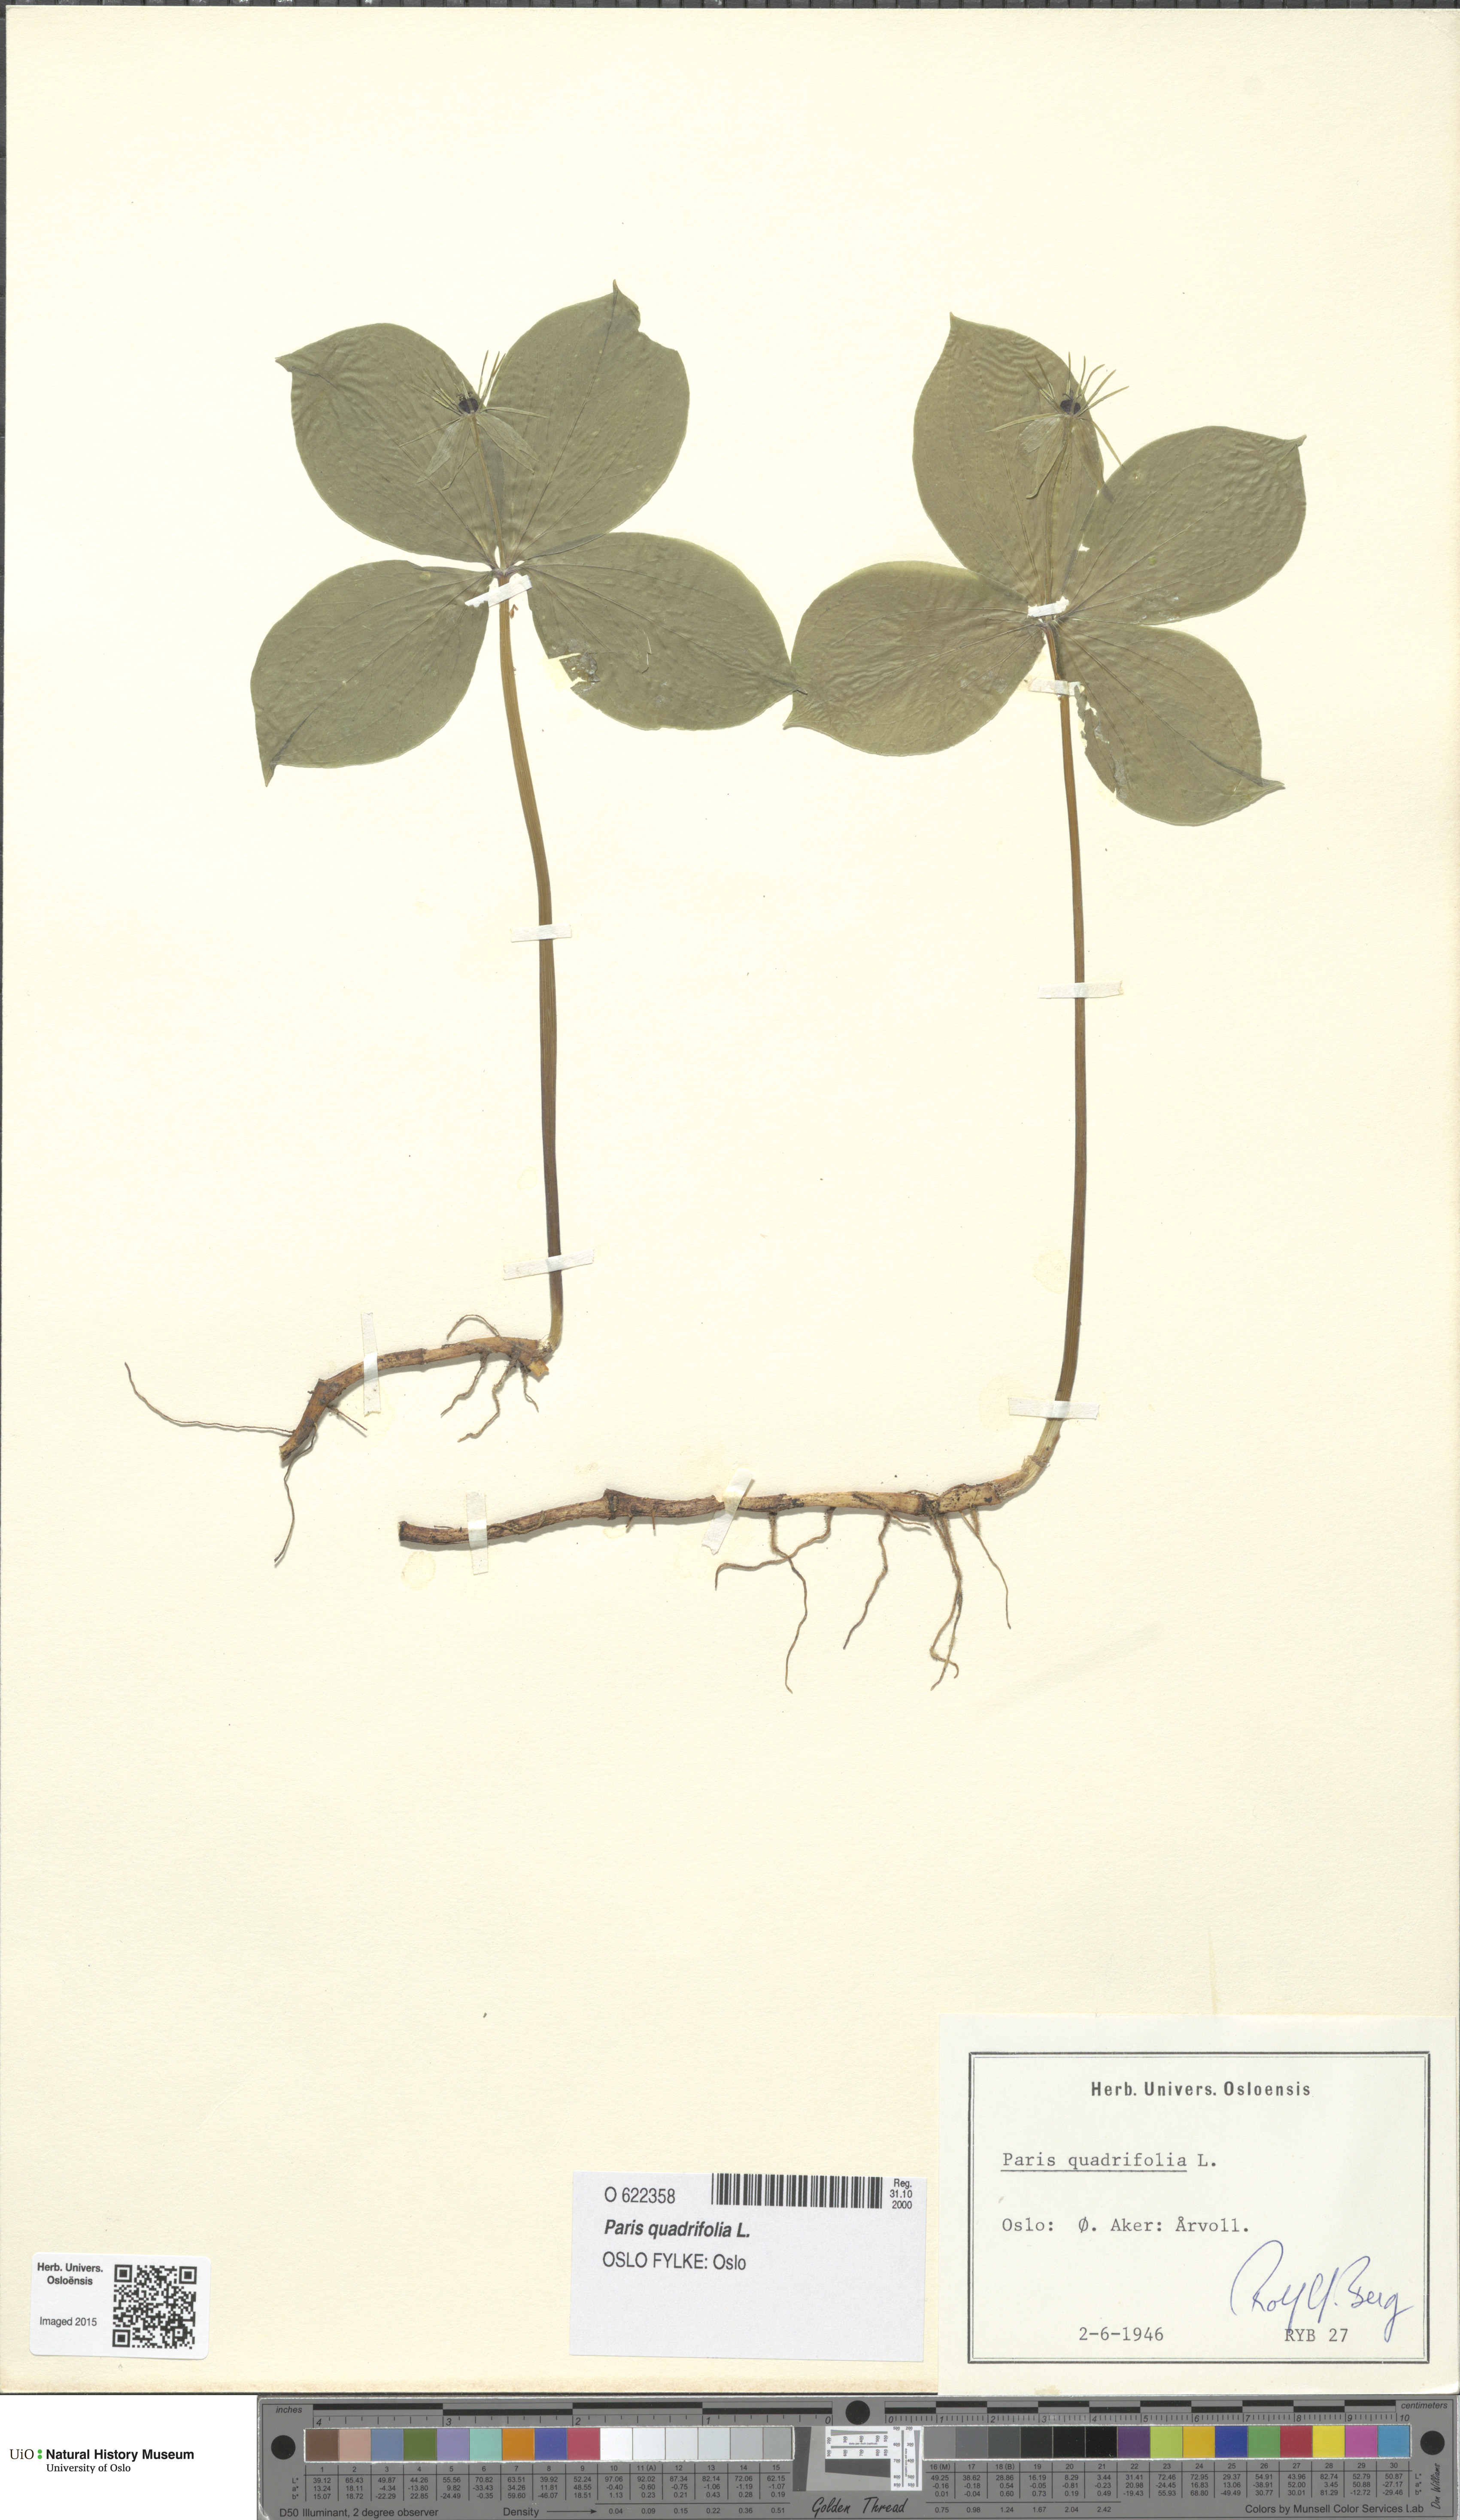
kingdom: Plantae
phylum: Tracheophyta
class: Liliopsida
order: Liliales
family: Melanthiaceae
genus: Paris
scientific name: Paris quadrifolia
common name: Herb-paris
